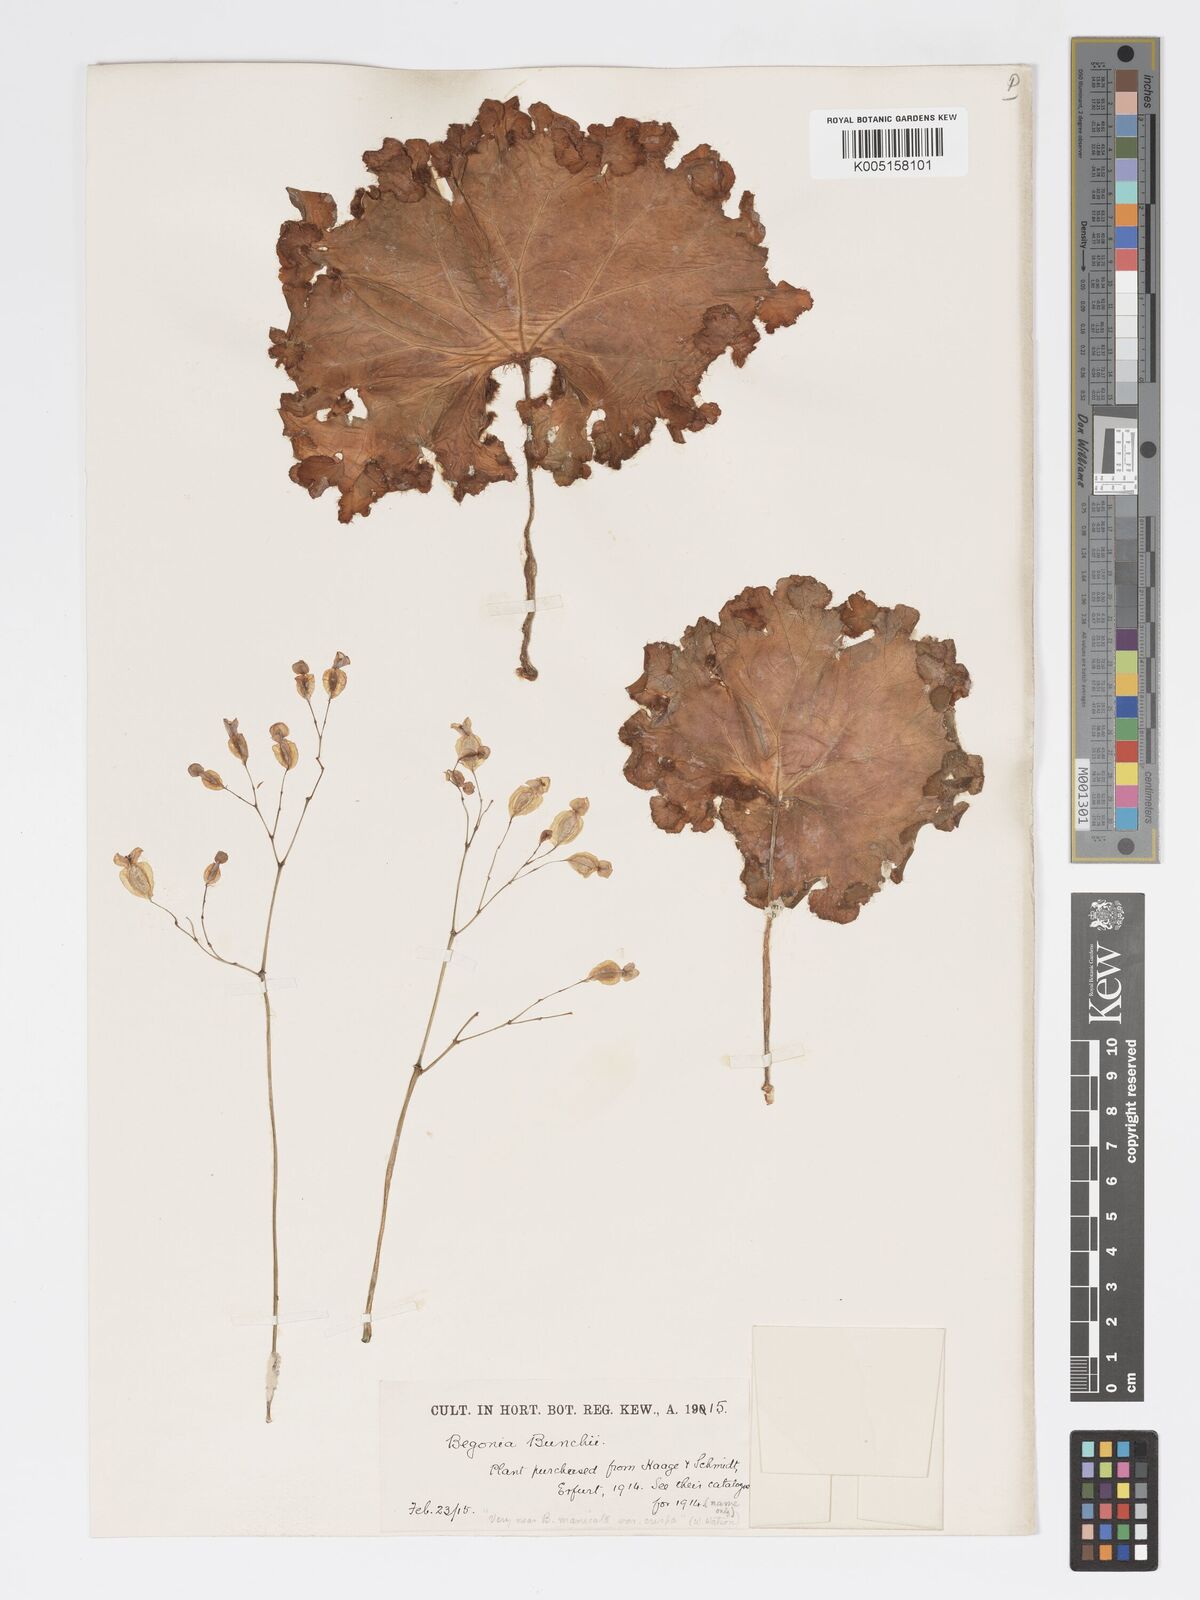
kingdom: Plantae
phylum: Tracheophyta
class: Magnoliopsida
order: Cucurbitales
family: Begoniaceae
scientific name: Begoniaceae
